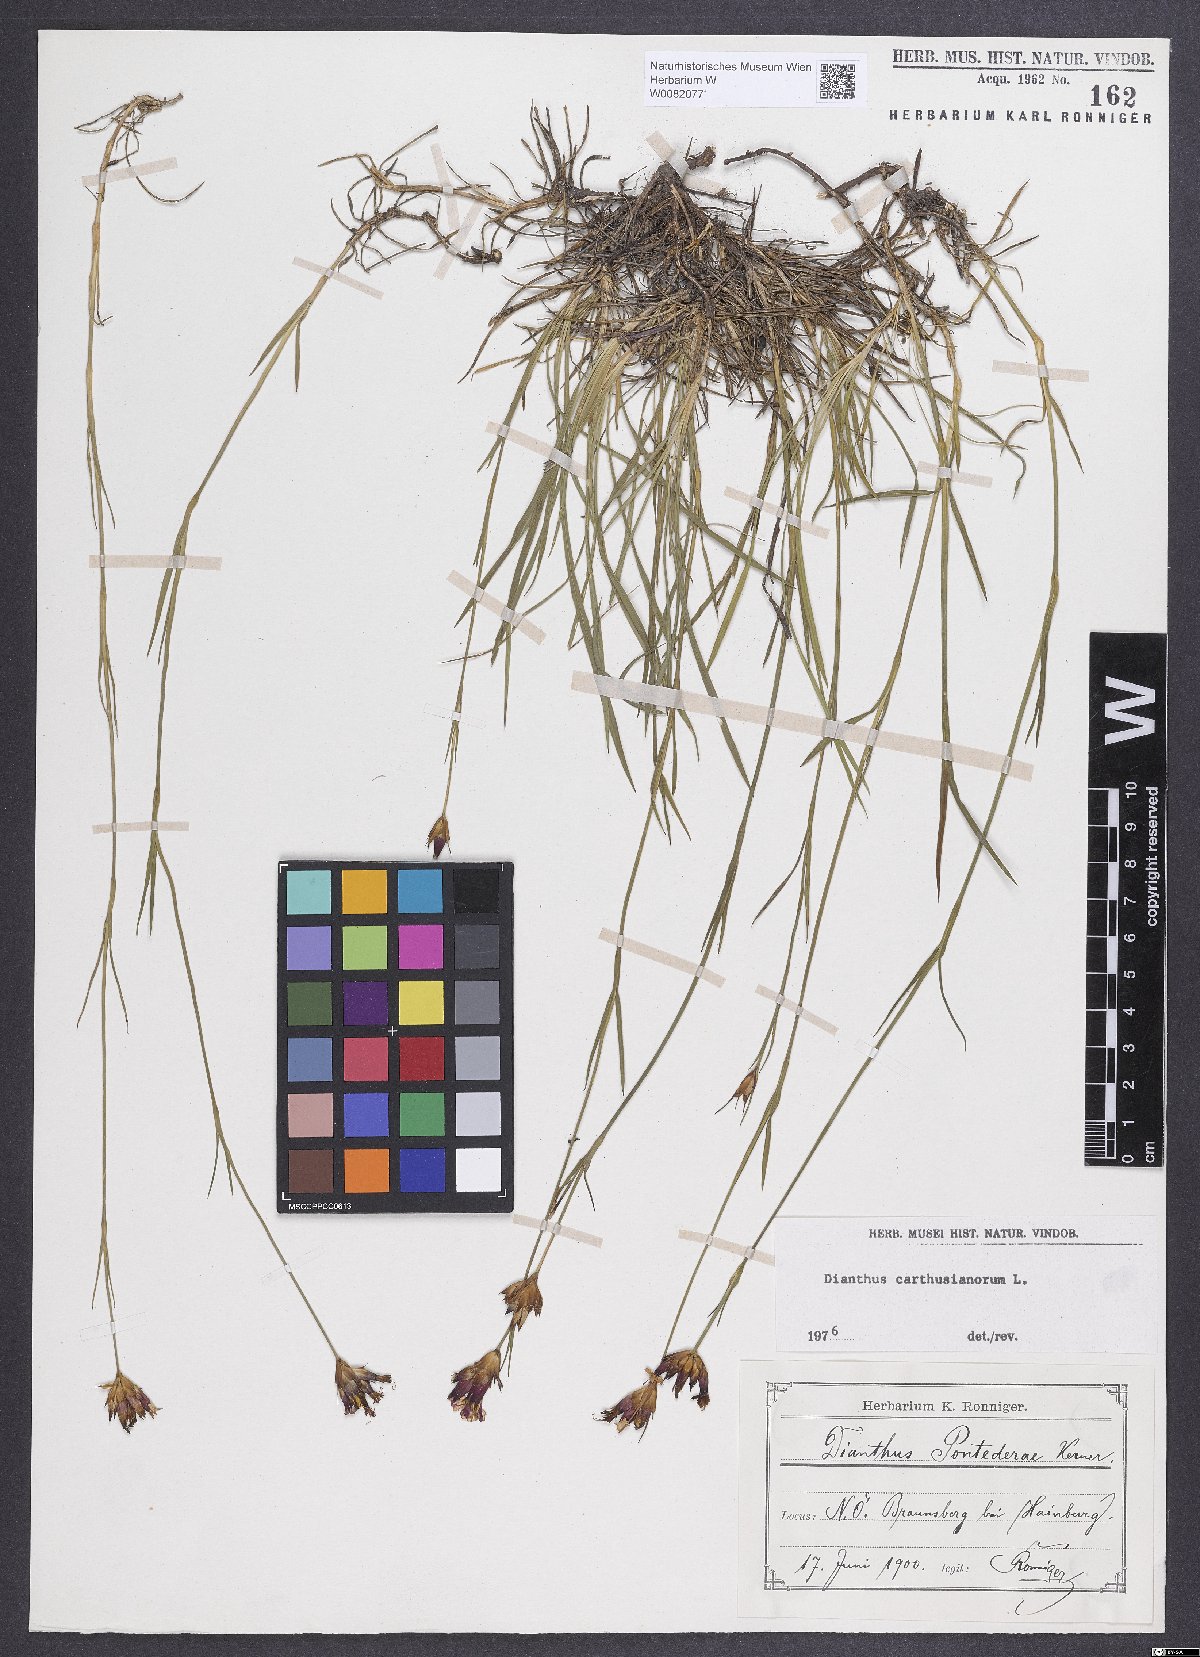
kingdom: Plantae
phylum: Tracheophyta
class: Magnoliopsida
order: Caryophyllales
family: Caryophyllaceae
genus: Dianthus
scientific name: Dianthus carthusianorum
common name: Carthusian pink
